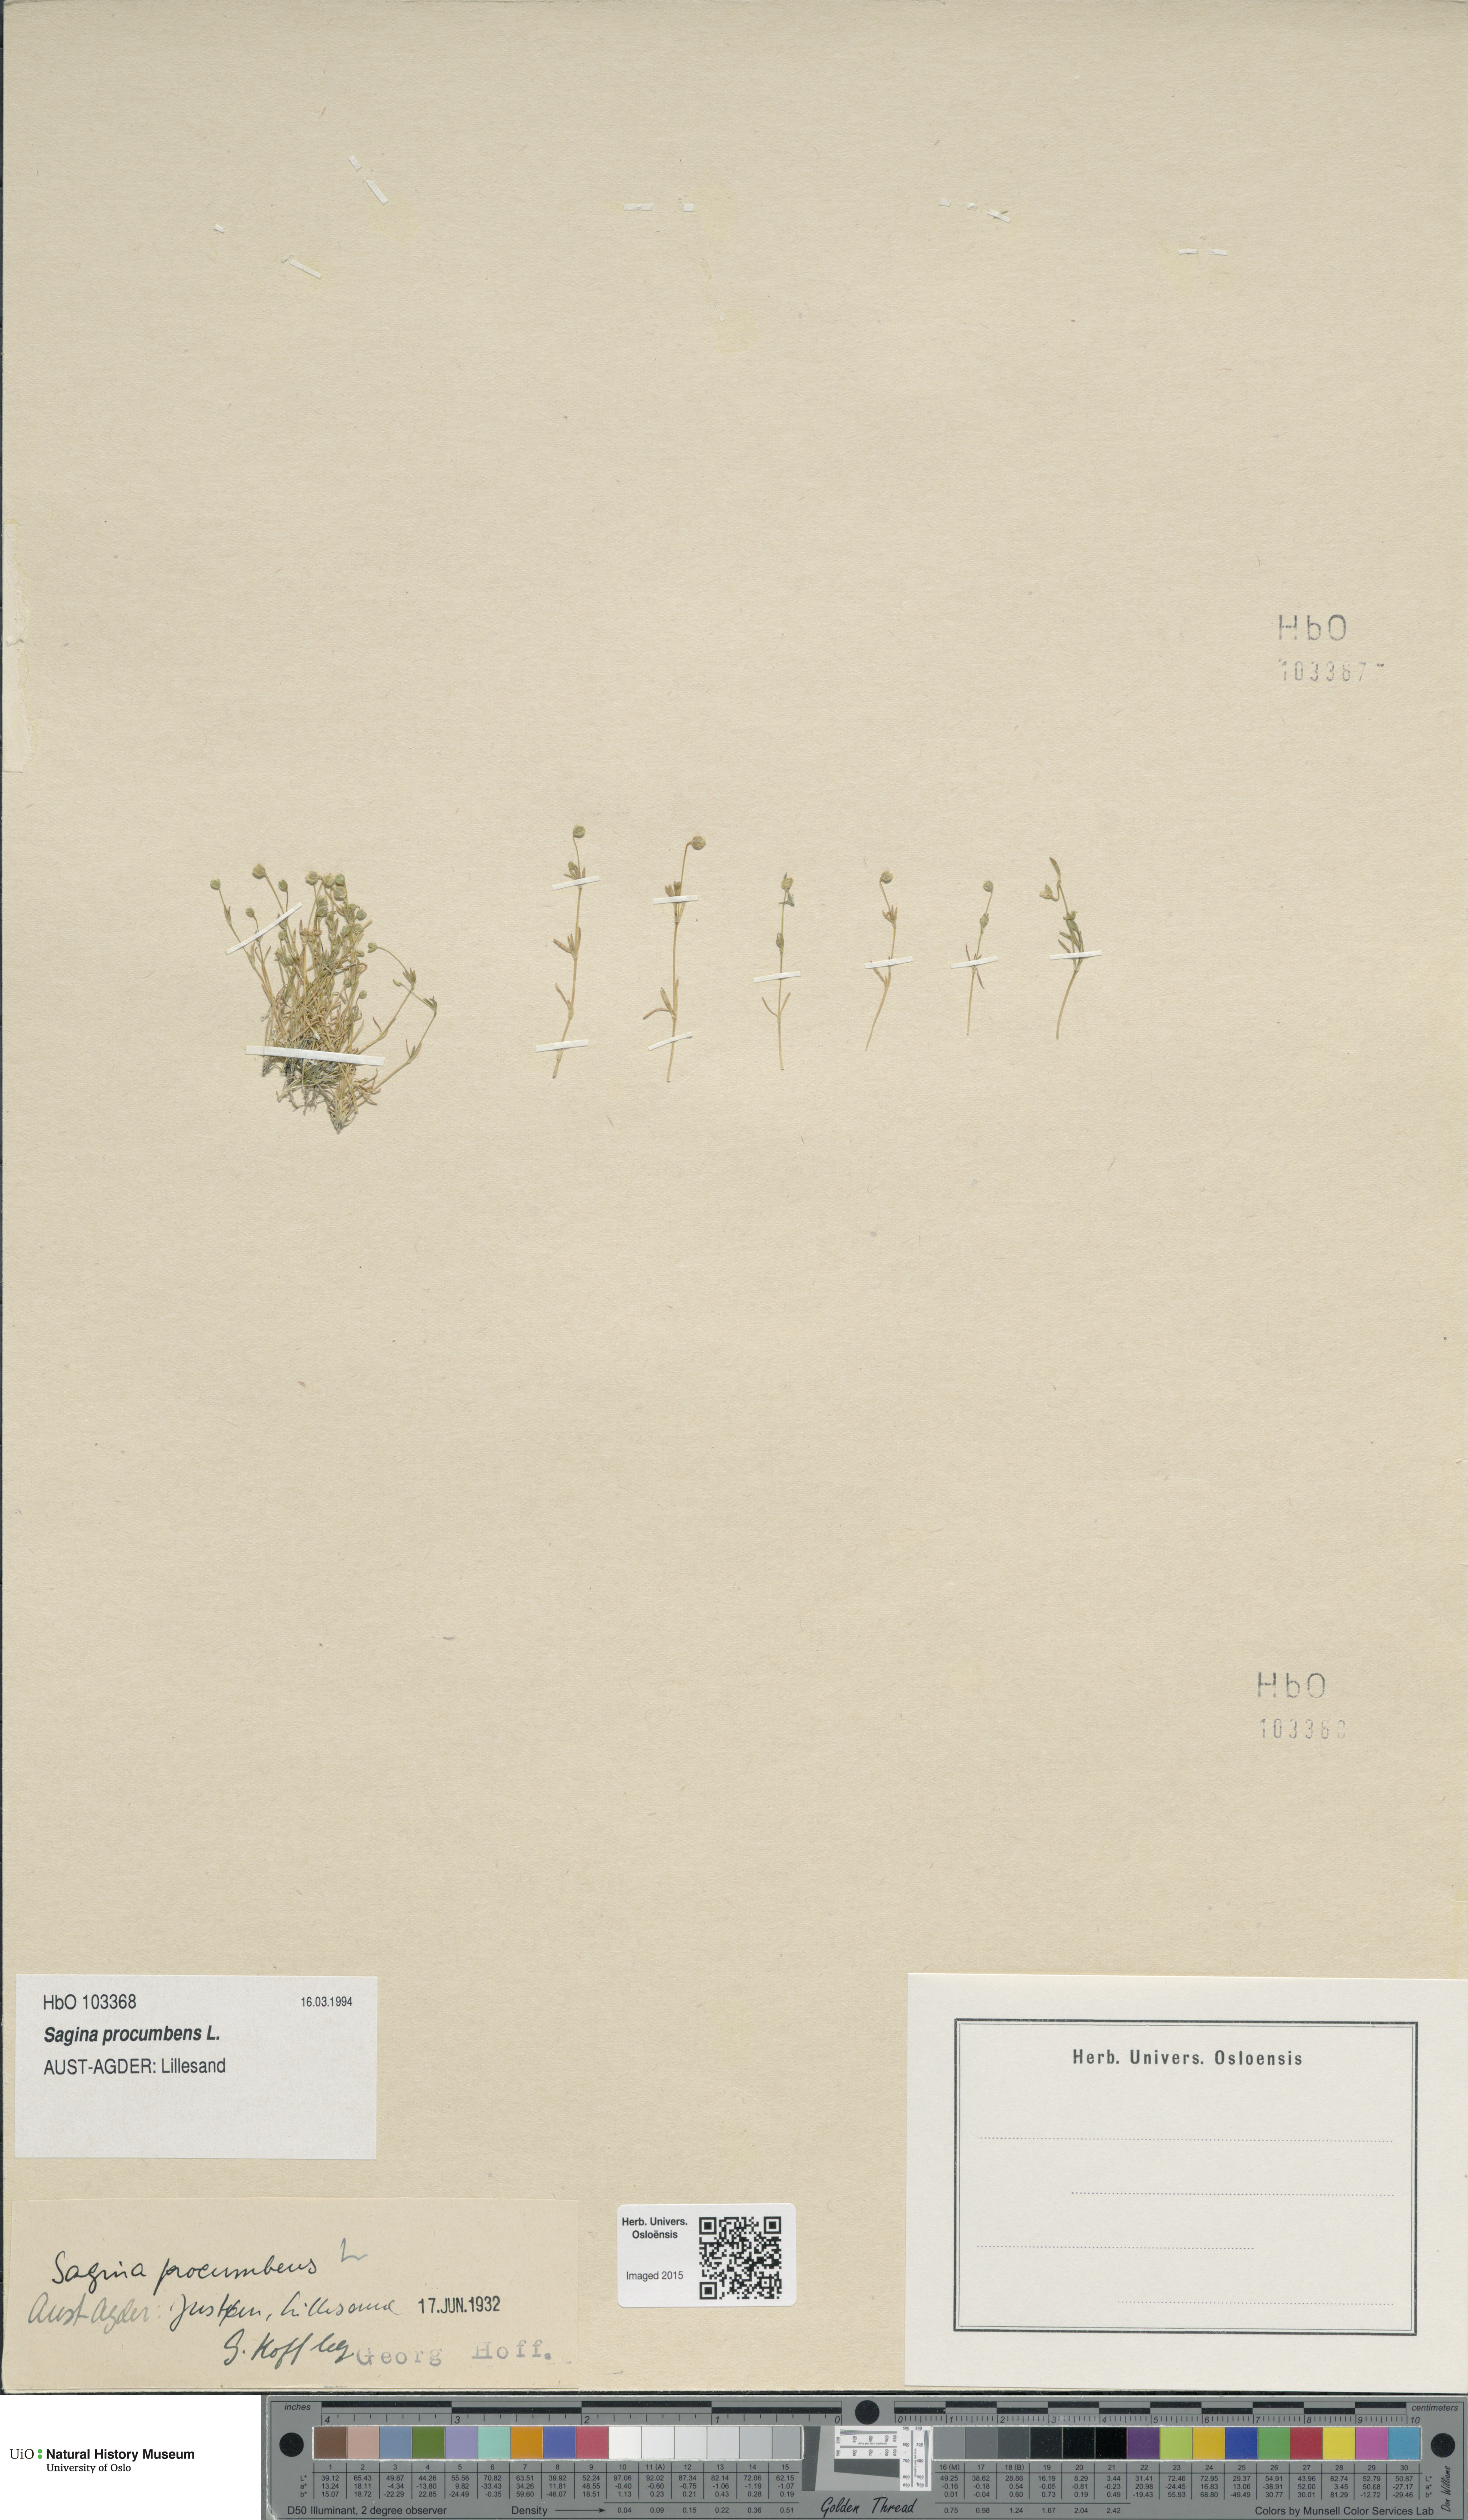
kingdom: Plantae
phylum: Tracheophyta
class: Magnoliopsida
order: Caryophyllales
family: Caryophyllaceae
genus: Sagina
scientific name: Sagina procumbens
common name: Procumbent pearlwort
